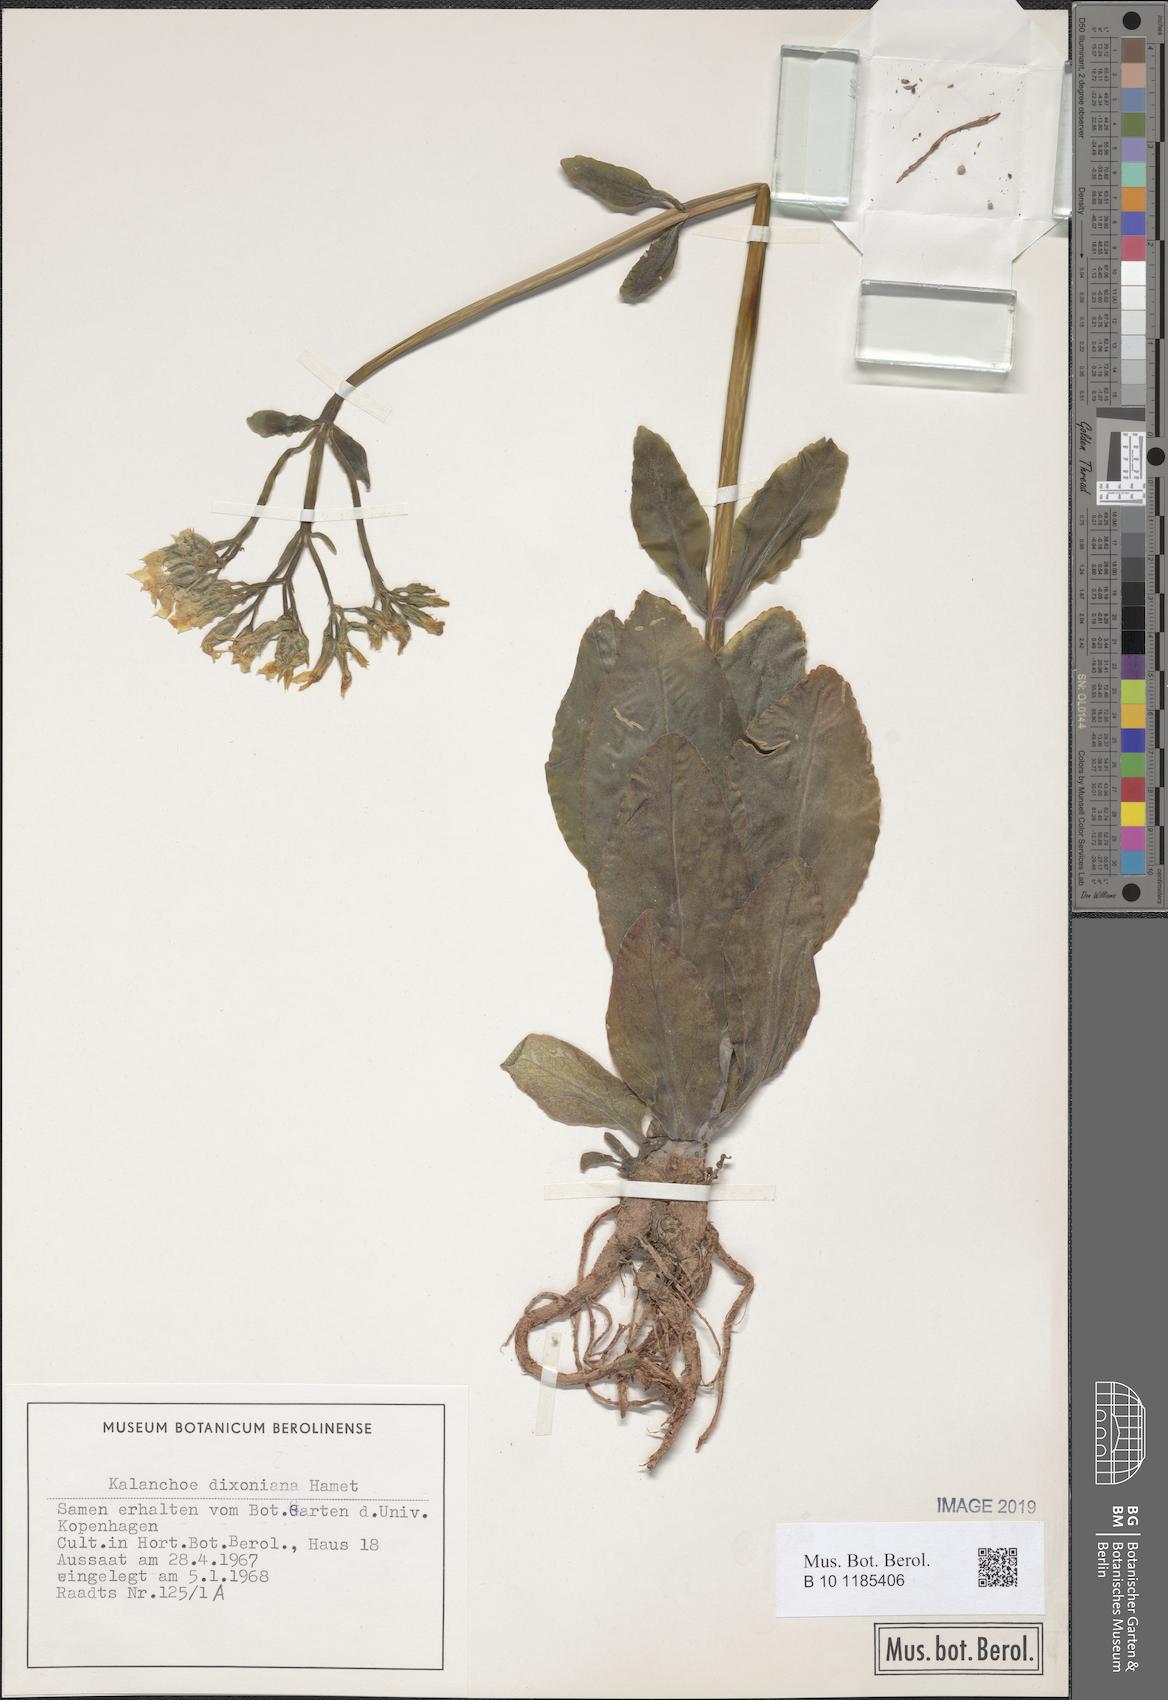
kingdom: Plantae
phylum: Tracheophyta
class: Magnoliopsida
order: Saxifragales
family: Crassulaceae
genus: Kalanchoe
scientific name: Kalanchoe integra
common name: Neverdie
